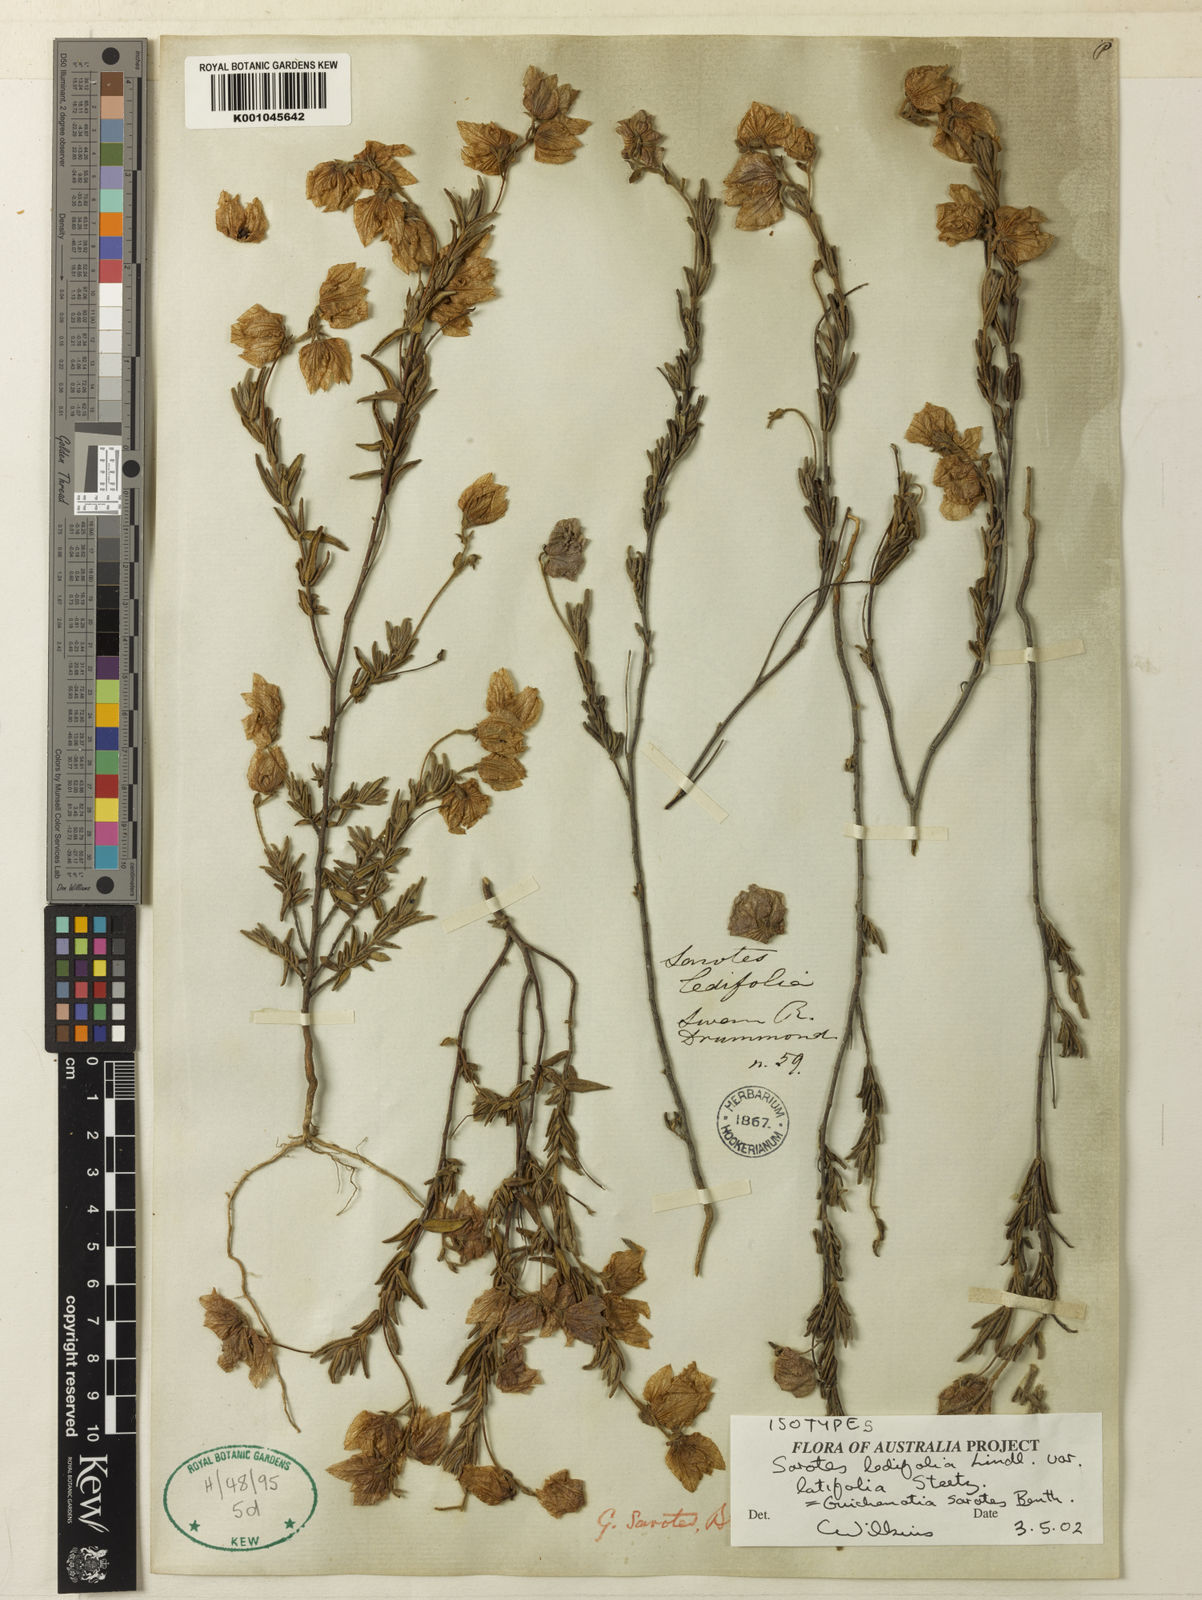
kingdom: Plantae
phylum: Tracheophyta
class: Magnoliopsida
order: Malvales
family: Malvaceae
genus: Guichenotia
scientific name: Guichenotia sarotes
